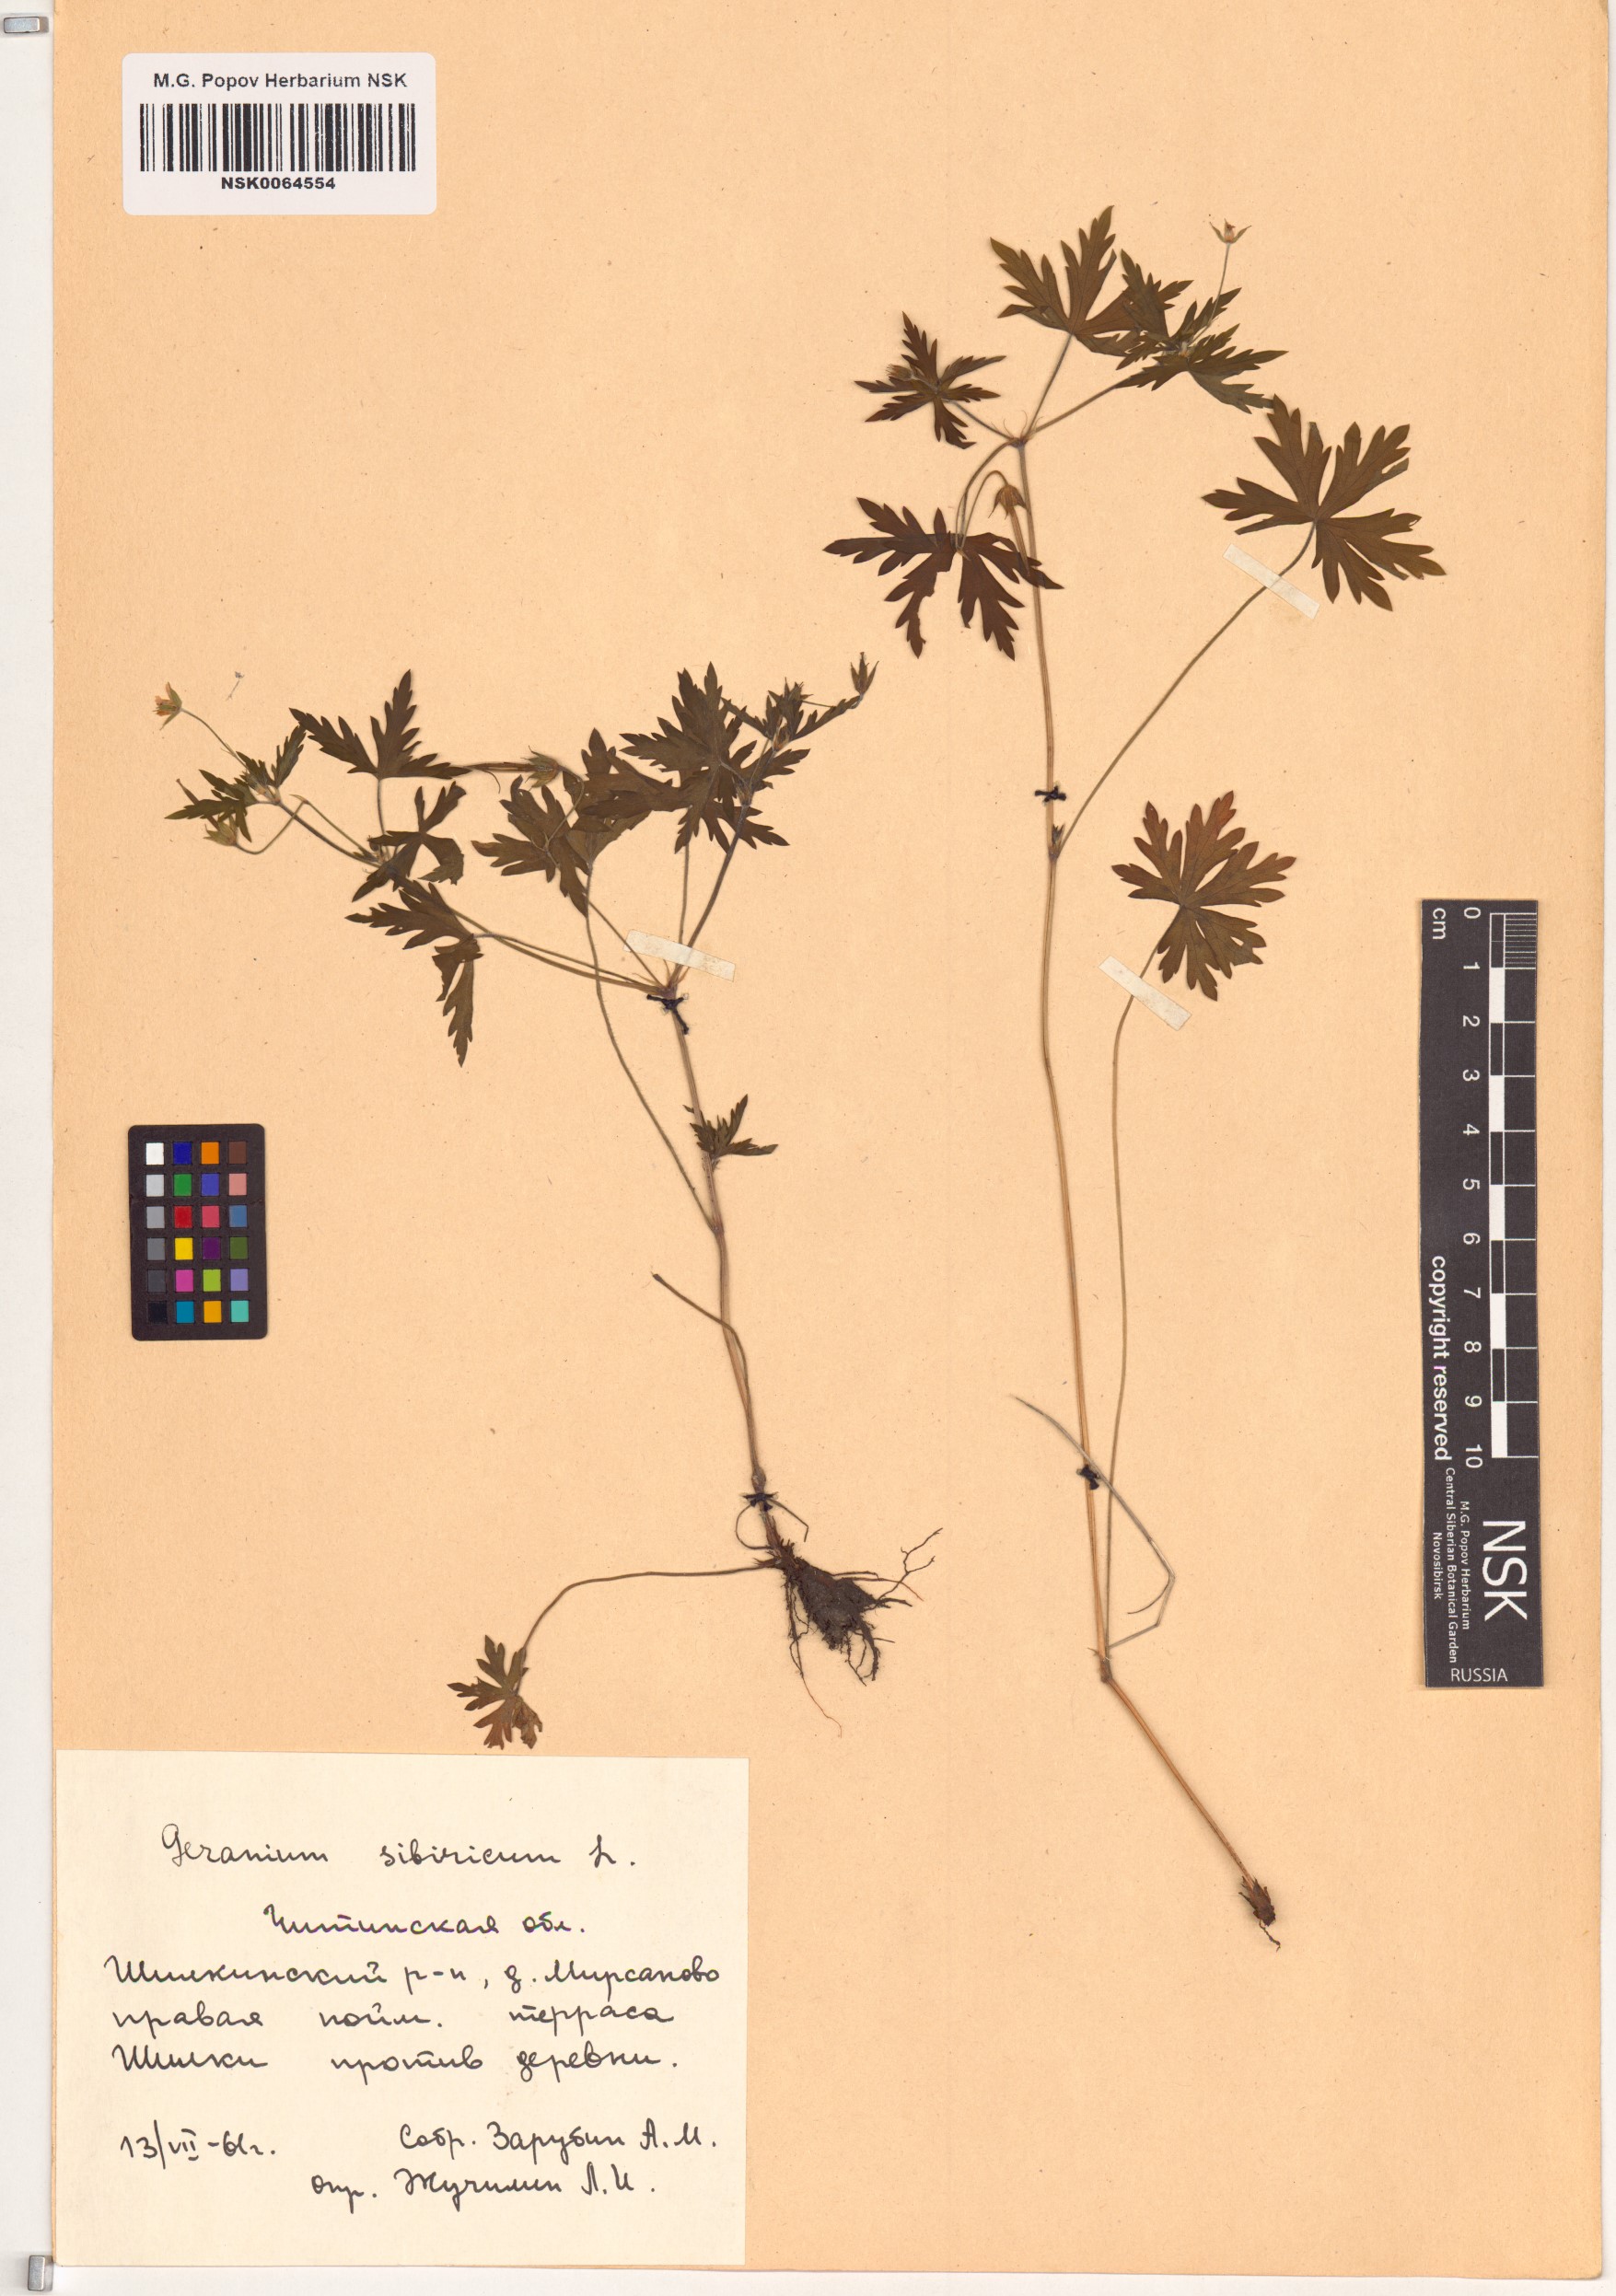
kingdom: Plantae
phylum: Tracheophyta
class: Magnoliopsida
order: Geraniales
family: Geraniaceae
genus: Geranium
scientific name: Geranium sibiricum
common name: Siberian crane's-bill
